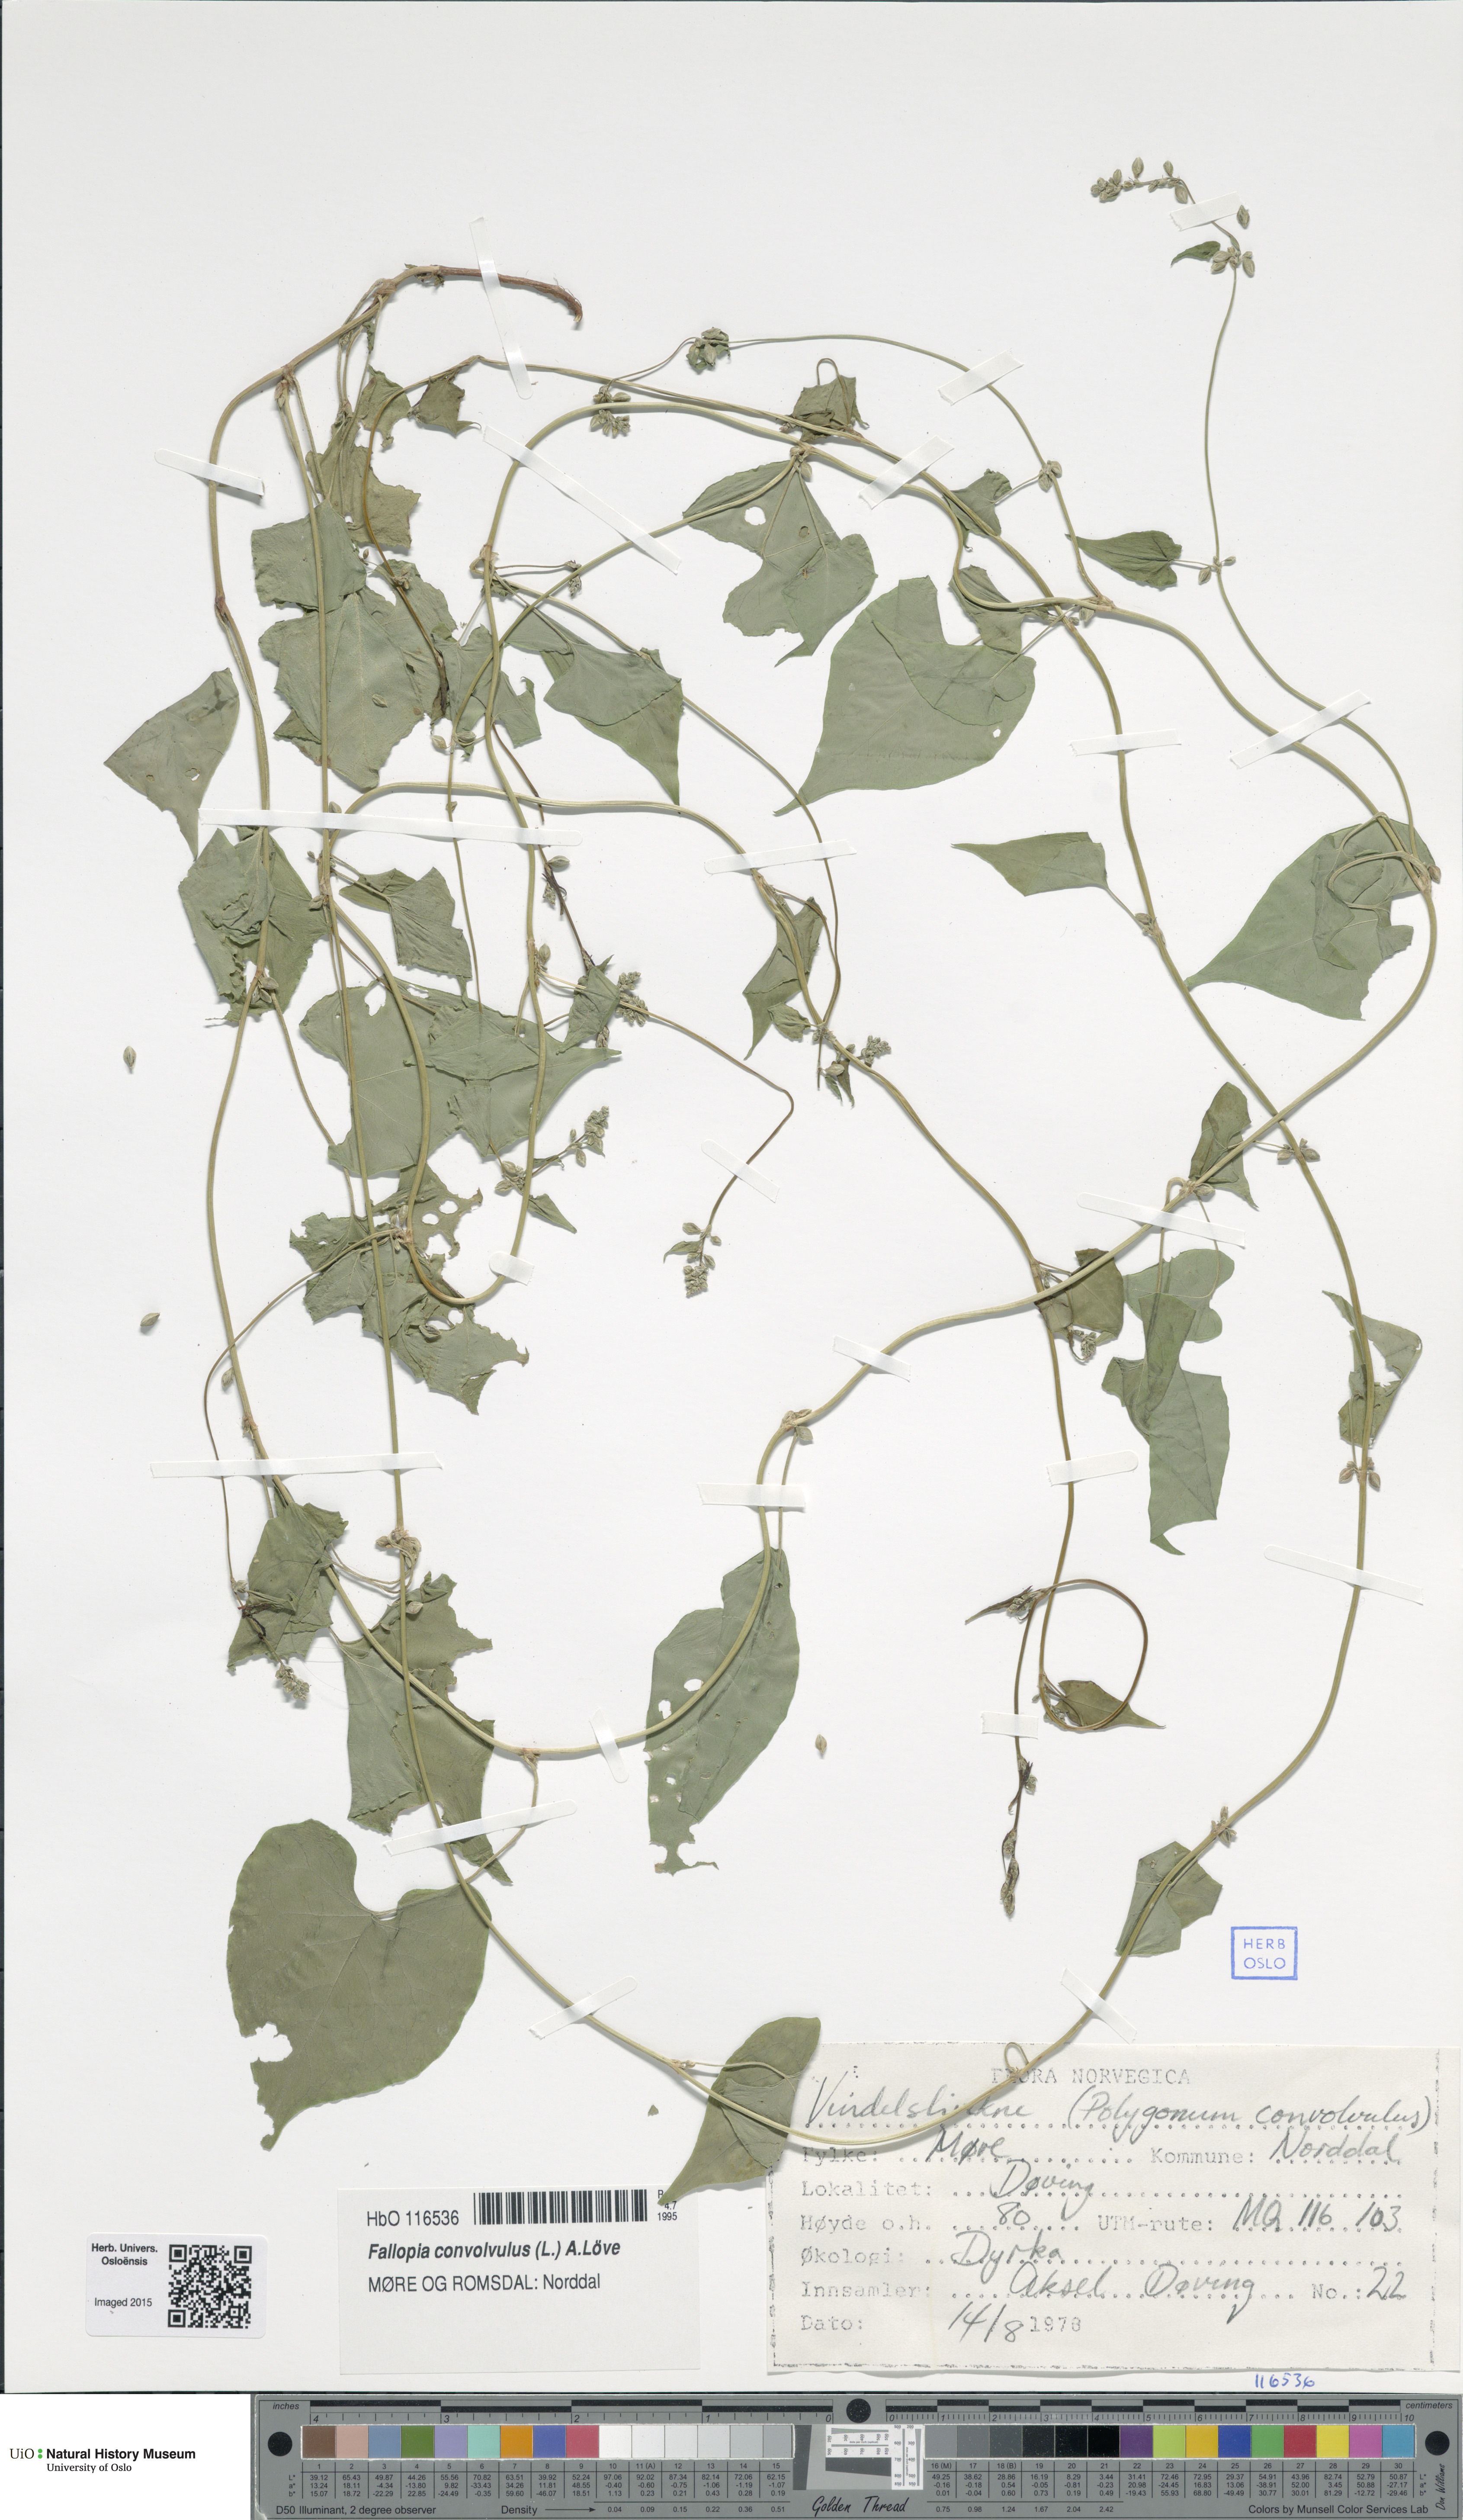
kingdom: Plantae
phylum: Tracheophyta
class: Magnoliopsida
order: Caryophyllales
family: Polygonaceae
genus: Fallopia
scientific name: Fallopia convolvulus
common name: Black bindweed
